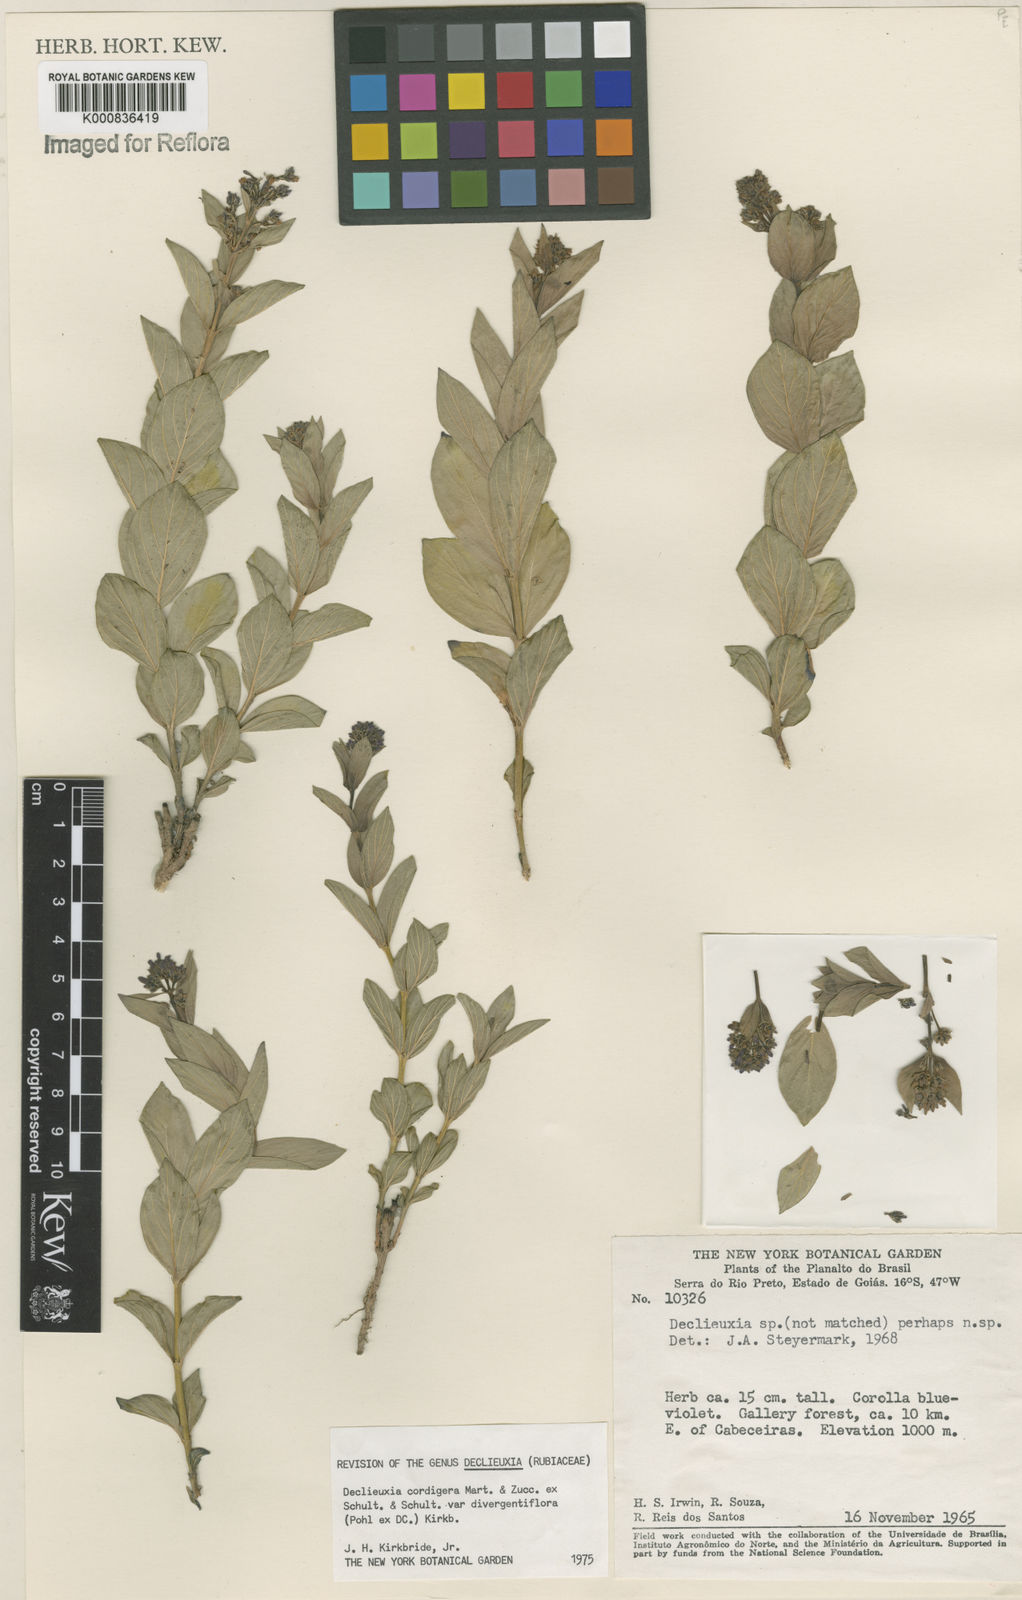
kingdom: Plantae
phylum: Tracheophyta
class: Magnoliopsida
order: Gentianales
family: Rubiaceae
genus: Declieuxia
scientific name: Declieuxia
